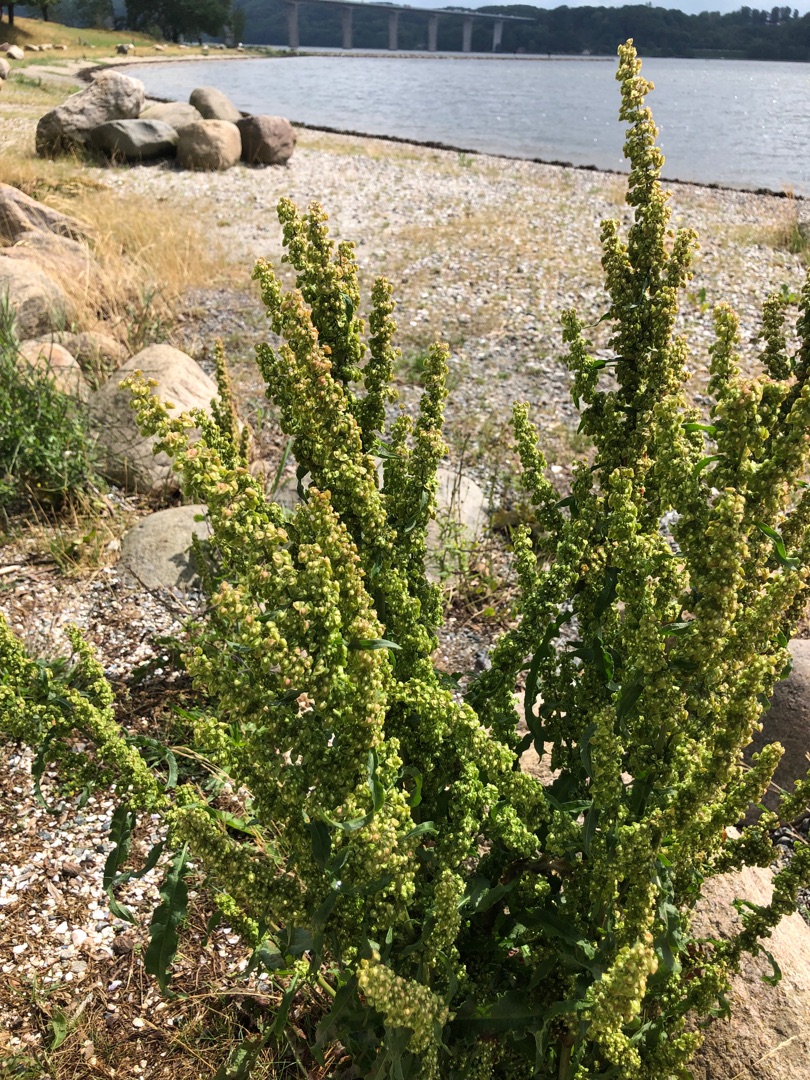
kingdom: Plantae
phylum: Tracheophyta
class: Magnoliopsida
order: Caryophyllales
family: Polygonaceae
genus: Rumex
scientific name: Rumex crispus
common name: Kruset skræppe
